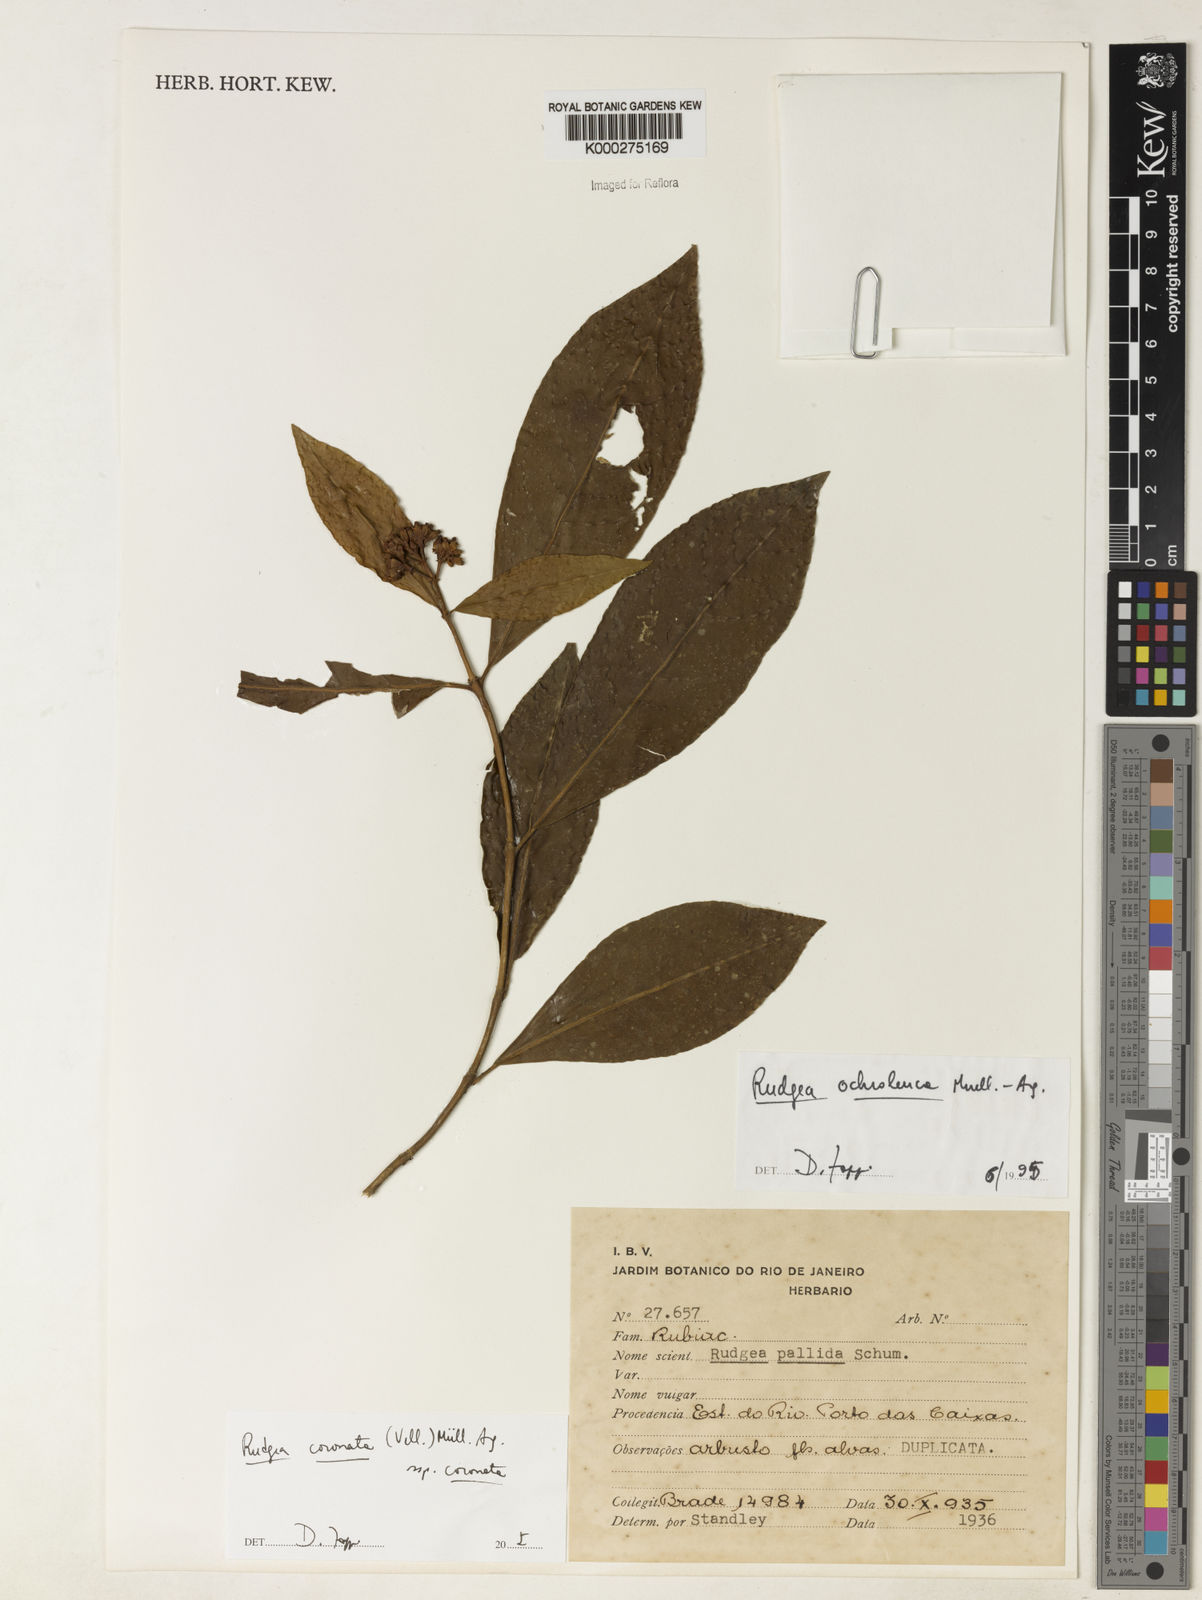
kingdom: Plantae
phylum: Tracheophyta
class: Magnoliopsida
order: Gentianales
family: Rubiaceae
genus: Rudgea
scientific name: Rudgea coronata
